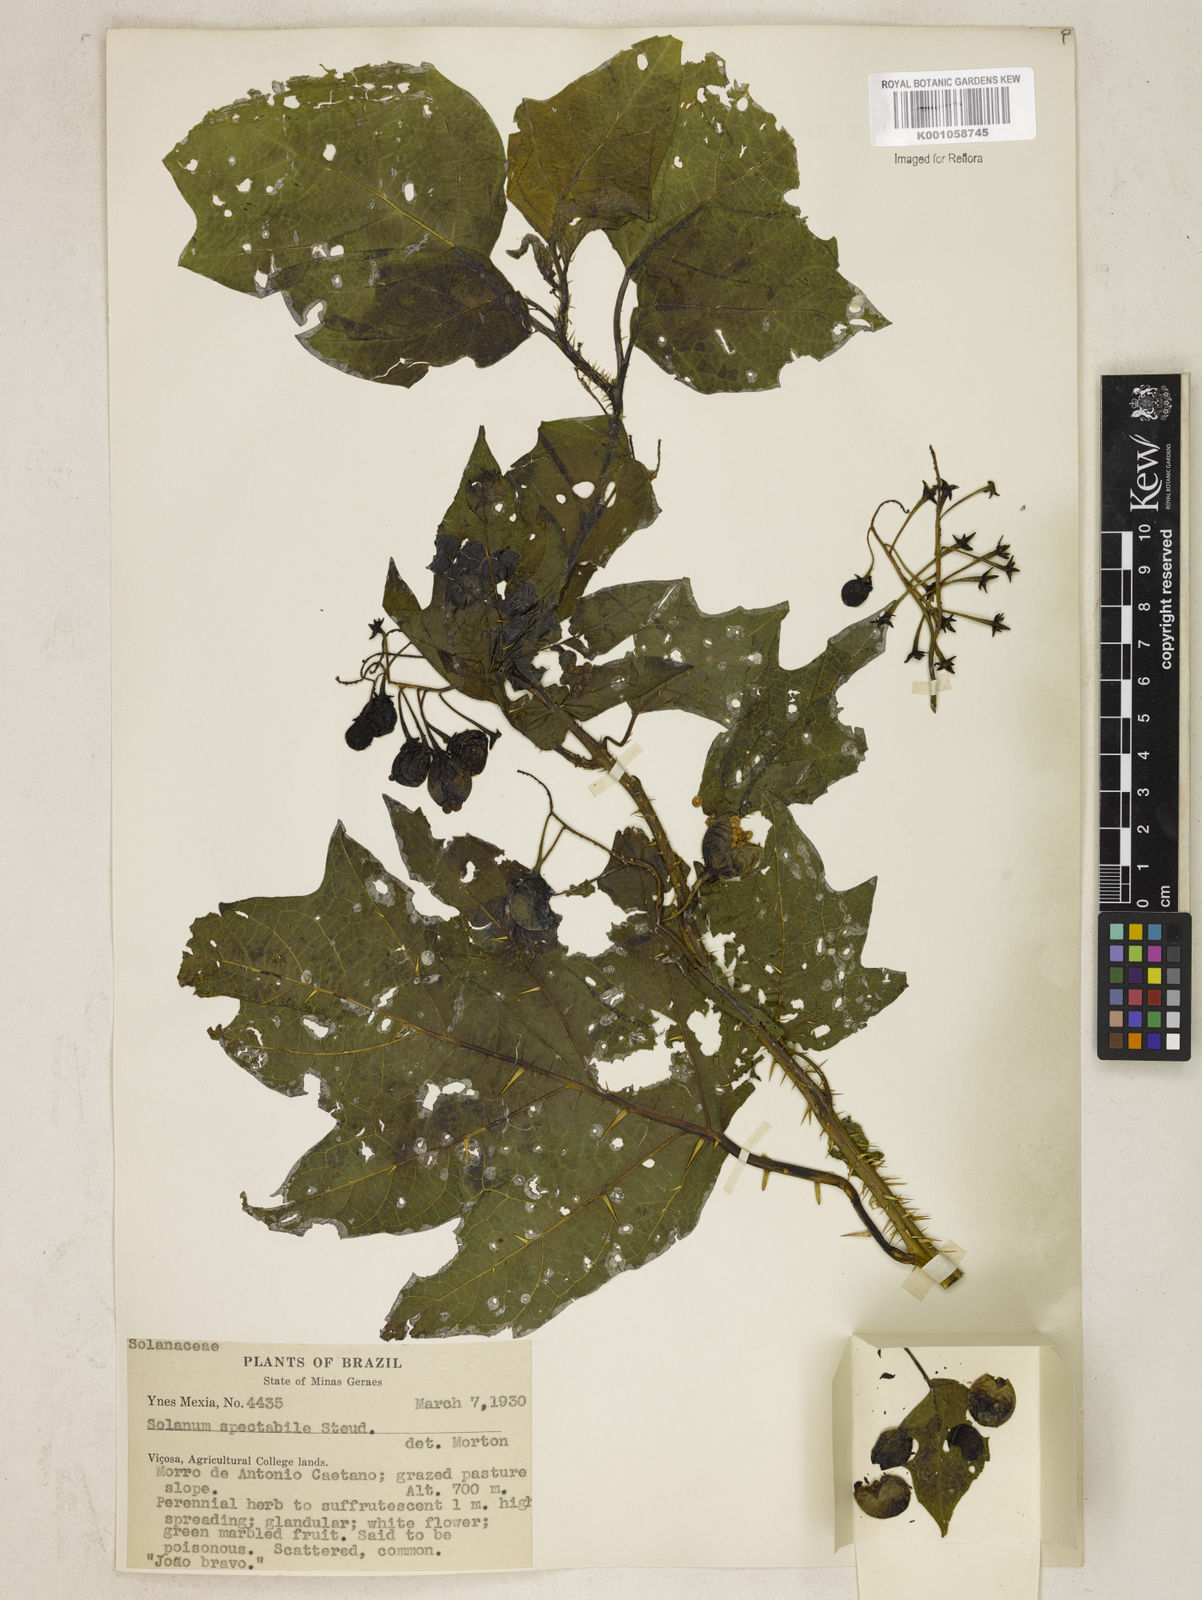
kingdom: Plantae
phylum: Tracheophyta
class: Magnoliopsida
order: Solanales
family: Solanaceae
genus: Solanum
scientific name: Solanum subumbellatum
